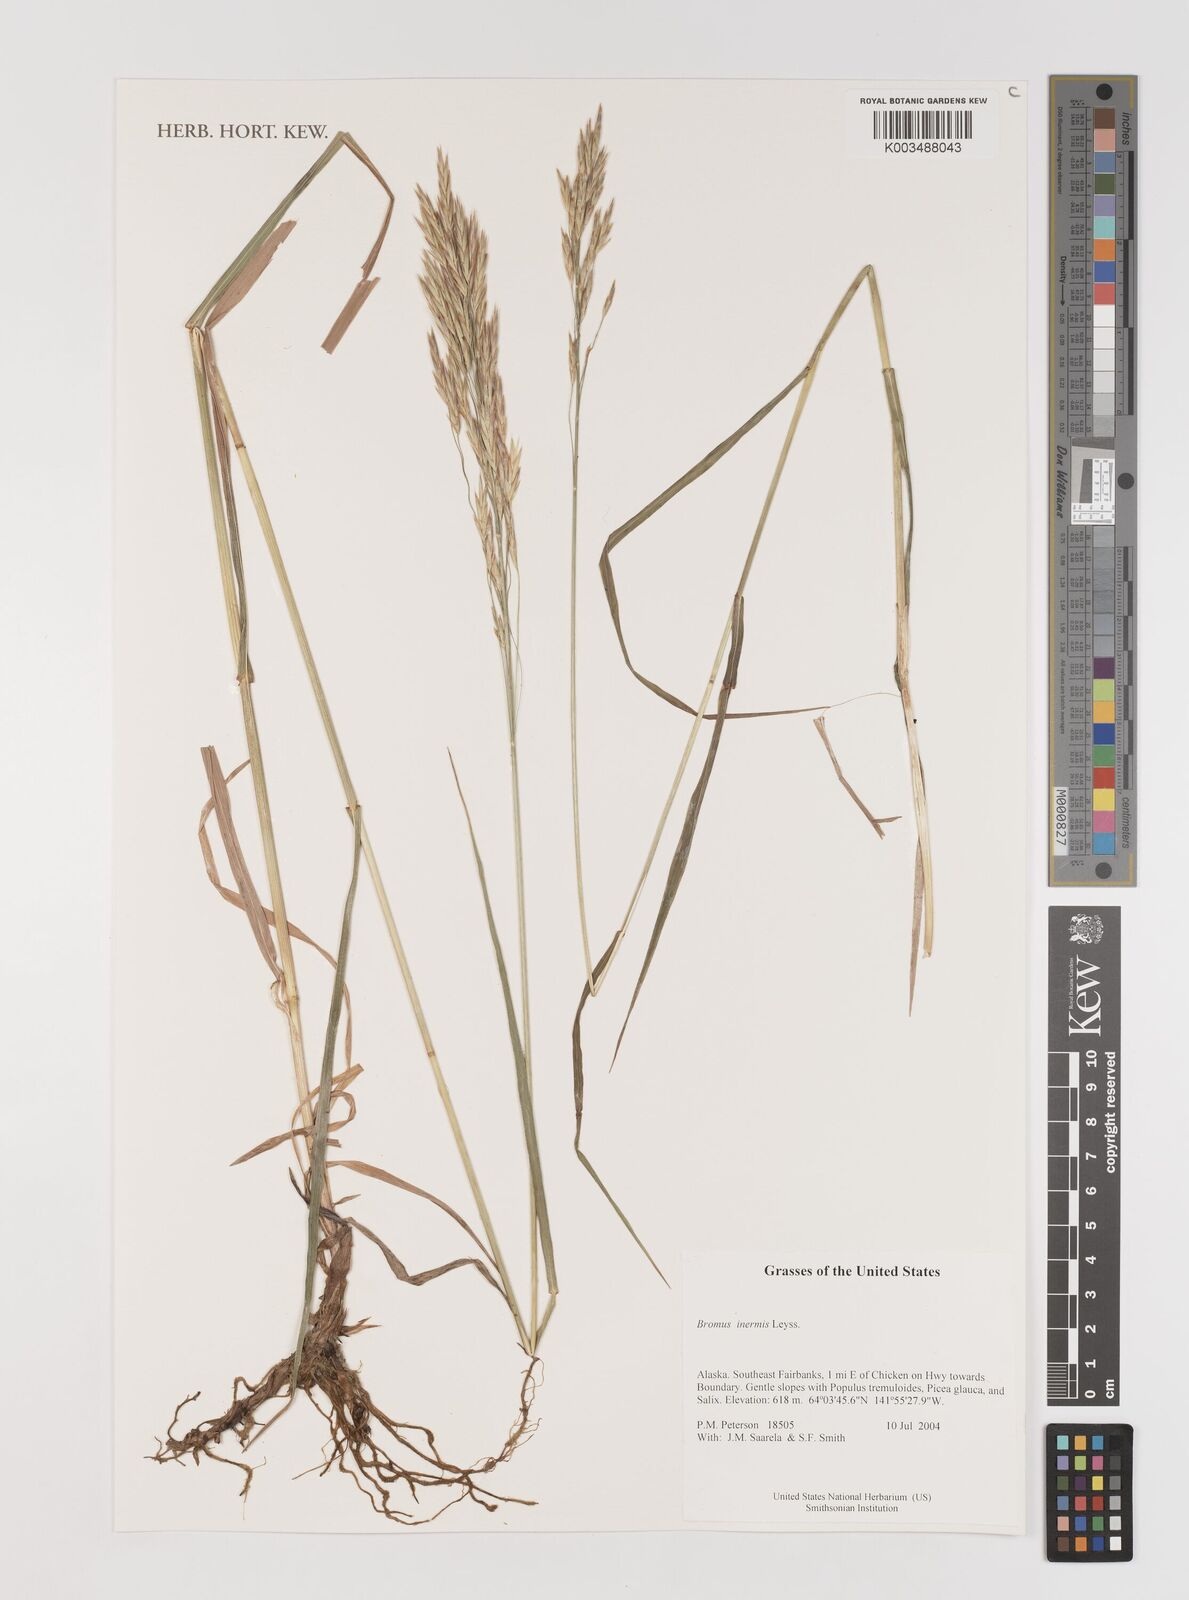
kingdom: Plantae
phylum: Tracheophyta
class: Liliopsida
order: Poales
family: Poaceae
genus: Bromus
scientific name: Bromus inermis
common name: Smooth brome
